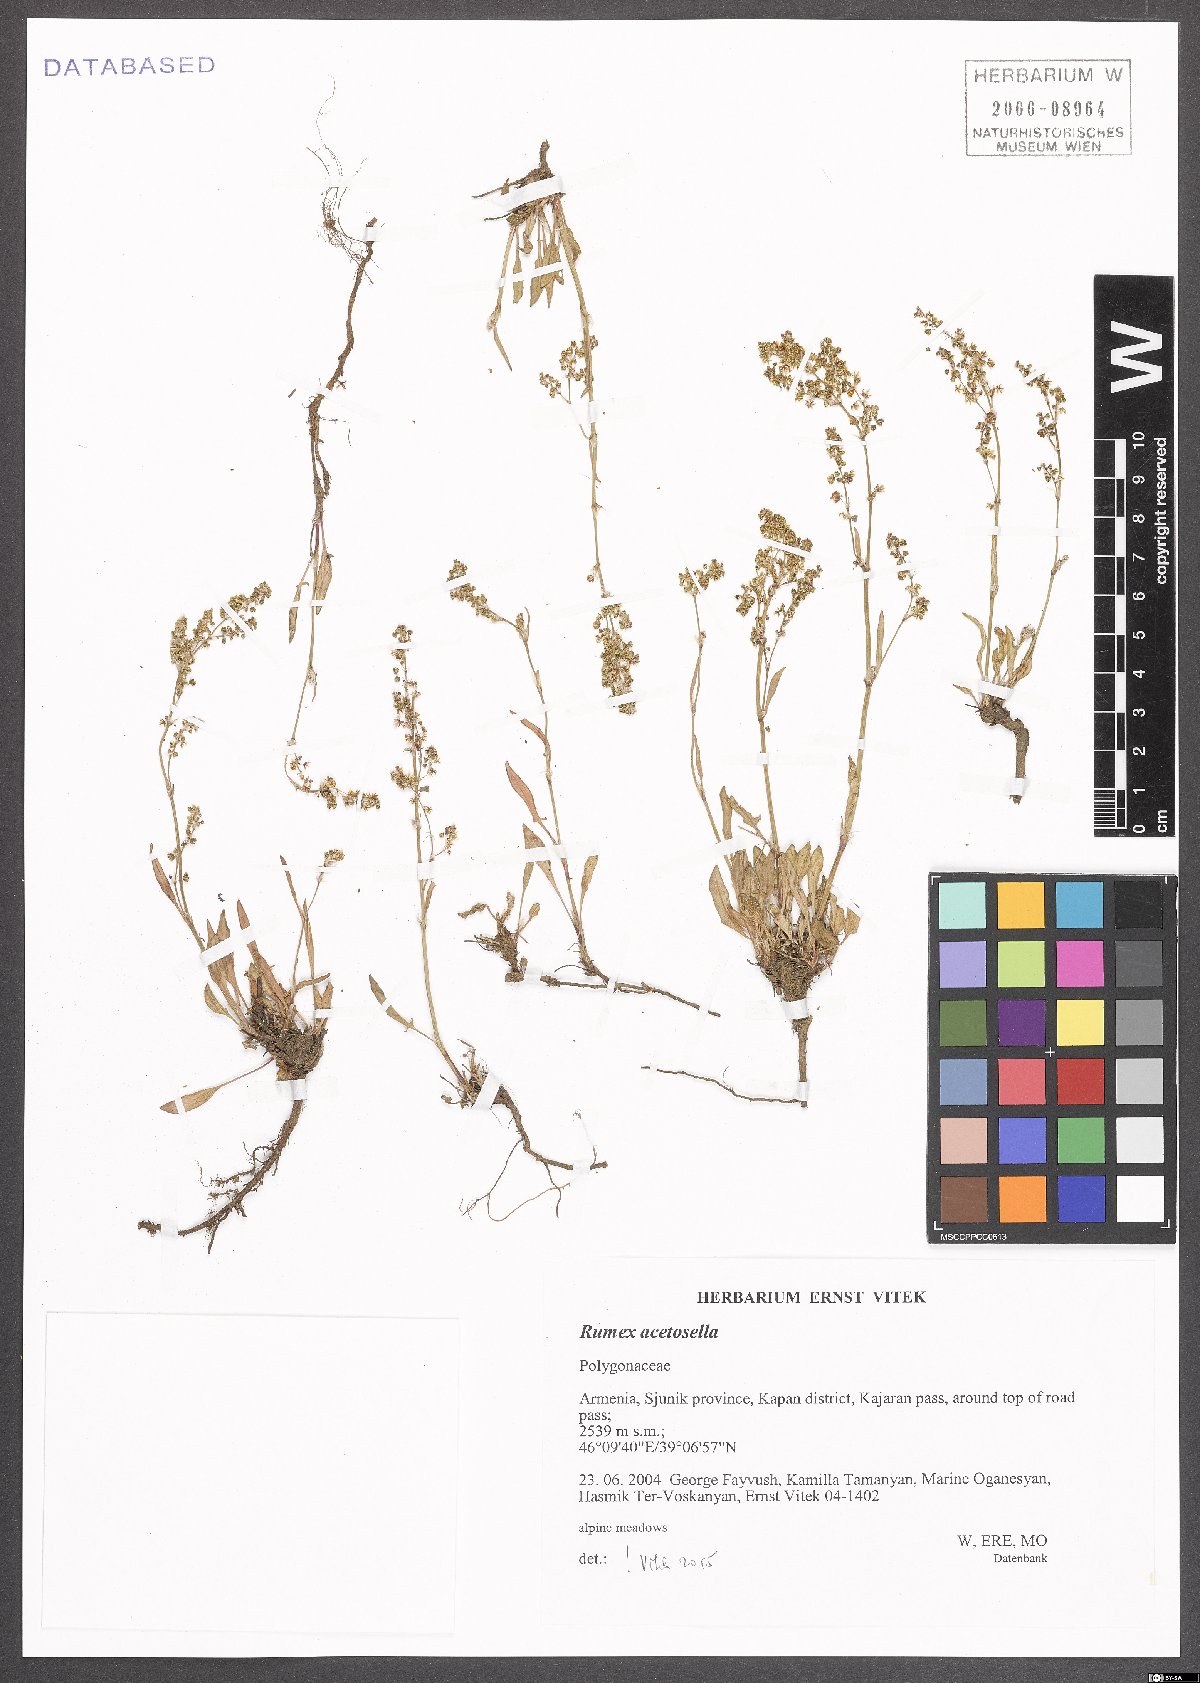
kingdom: Plantae
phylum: Tracheophyta
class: Magnoliopsida
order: Caryophyllales
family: Polygonaceae
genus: Rumex
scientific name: Rumex acetosella
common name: Common sheep sorrel
